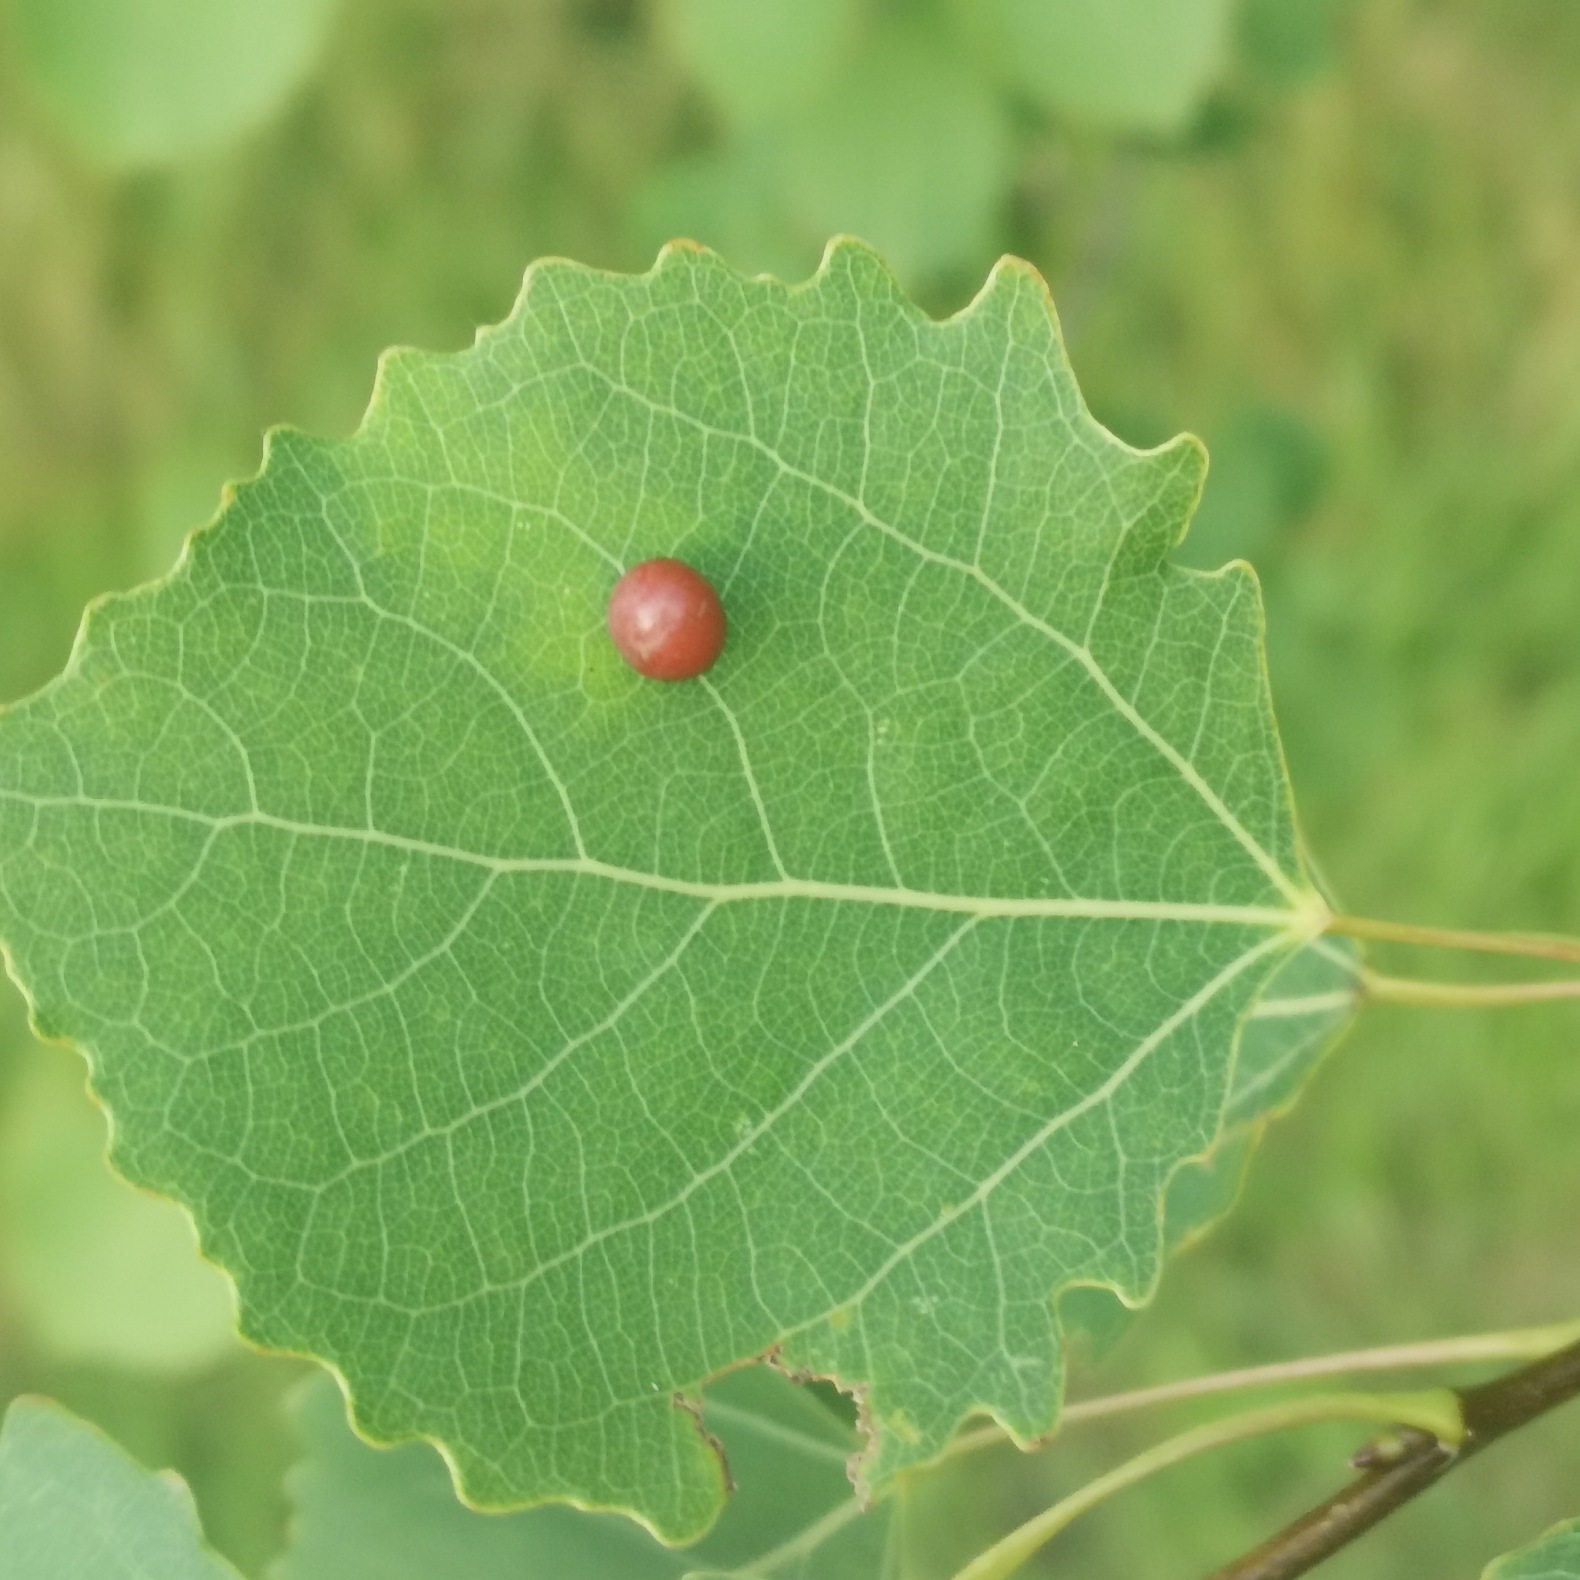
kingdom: Animalia
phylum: Arthropoda
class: Insecta
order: Diptera
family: Cecidomyiidae
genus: Harmandiola
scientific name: Harmandiola tremulae
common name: Aspekuglegalmyg
